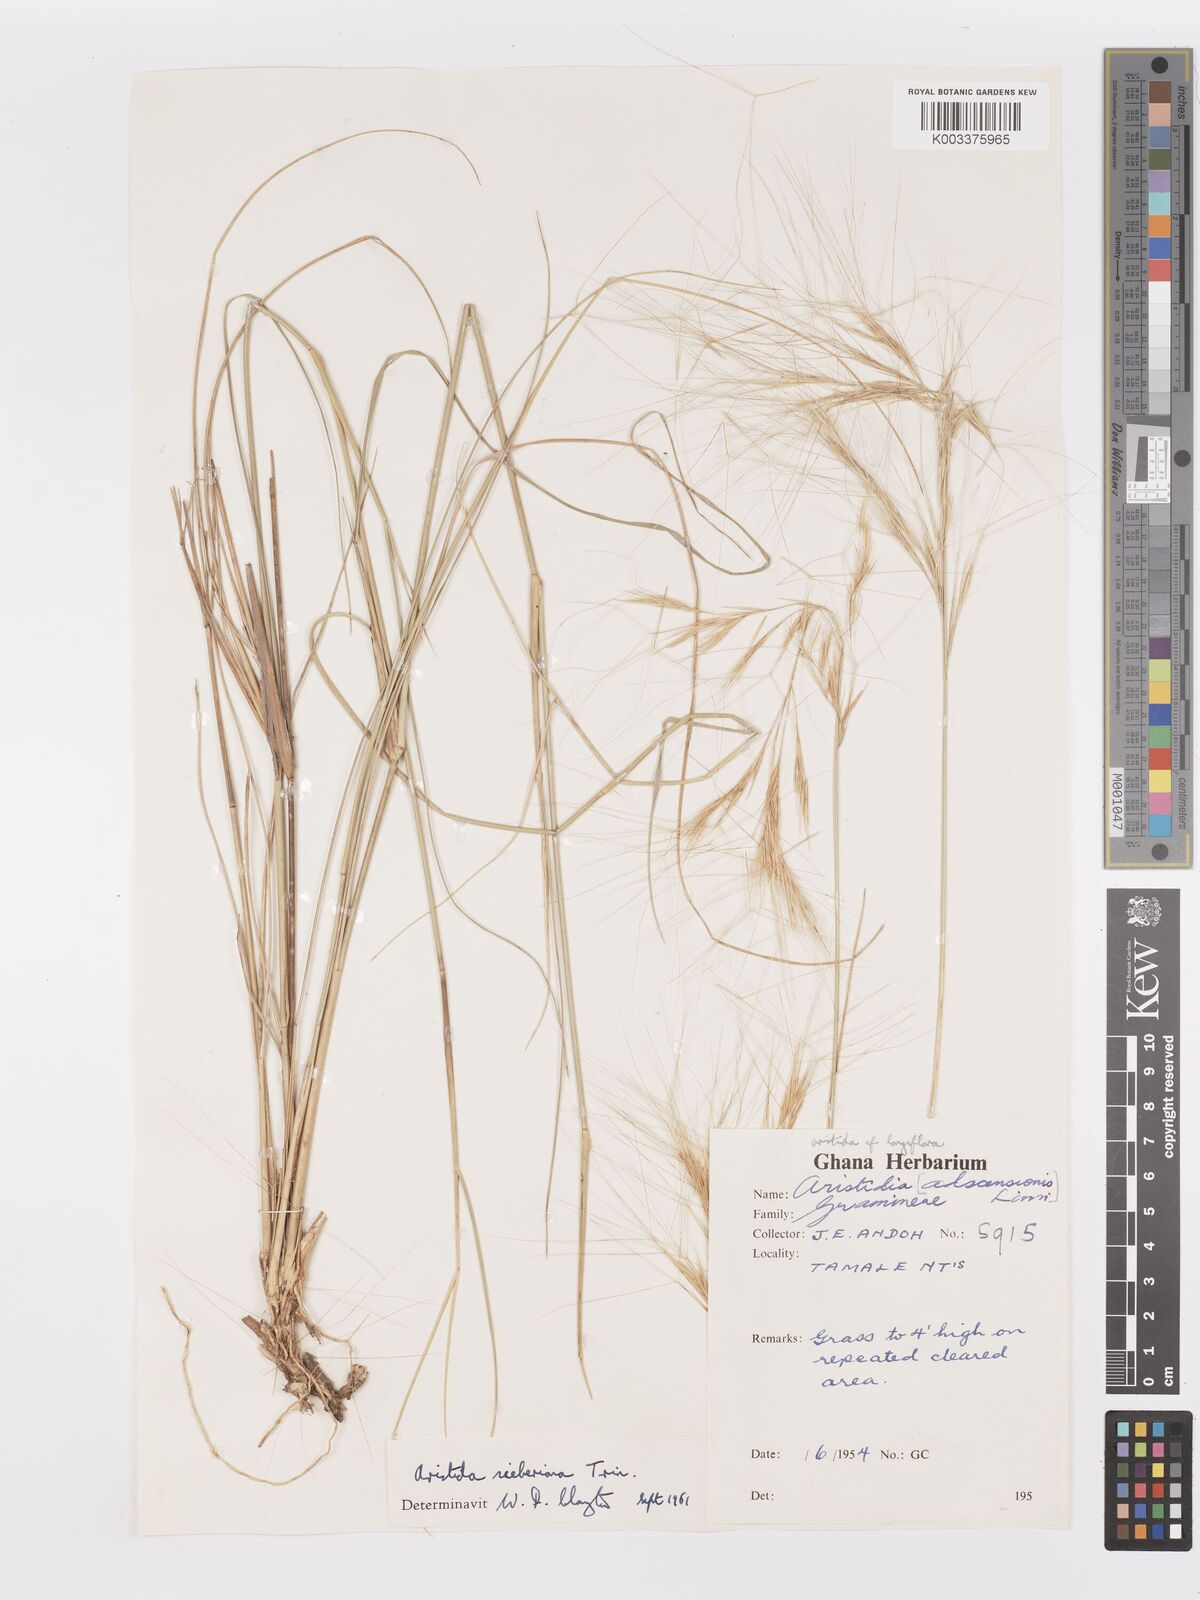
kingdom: Plantae
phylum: Tracheophyta
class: Liliopsida
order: Poales
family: Poaceae
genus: Aristida
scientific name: Aristida sieberiana
